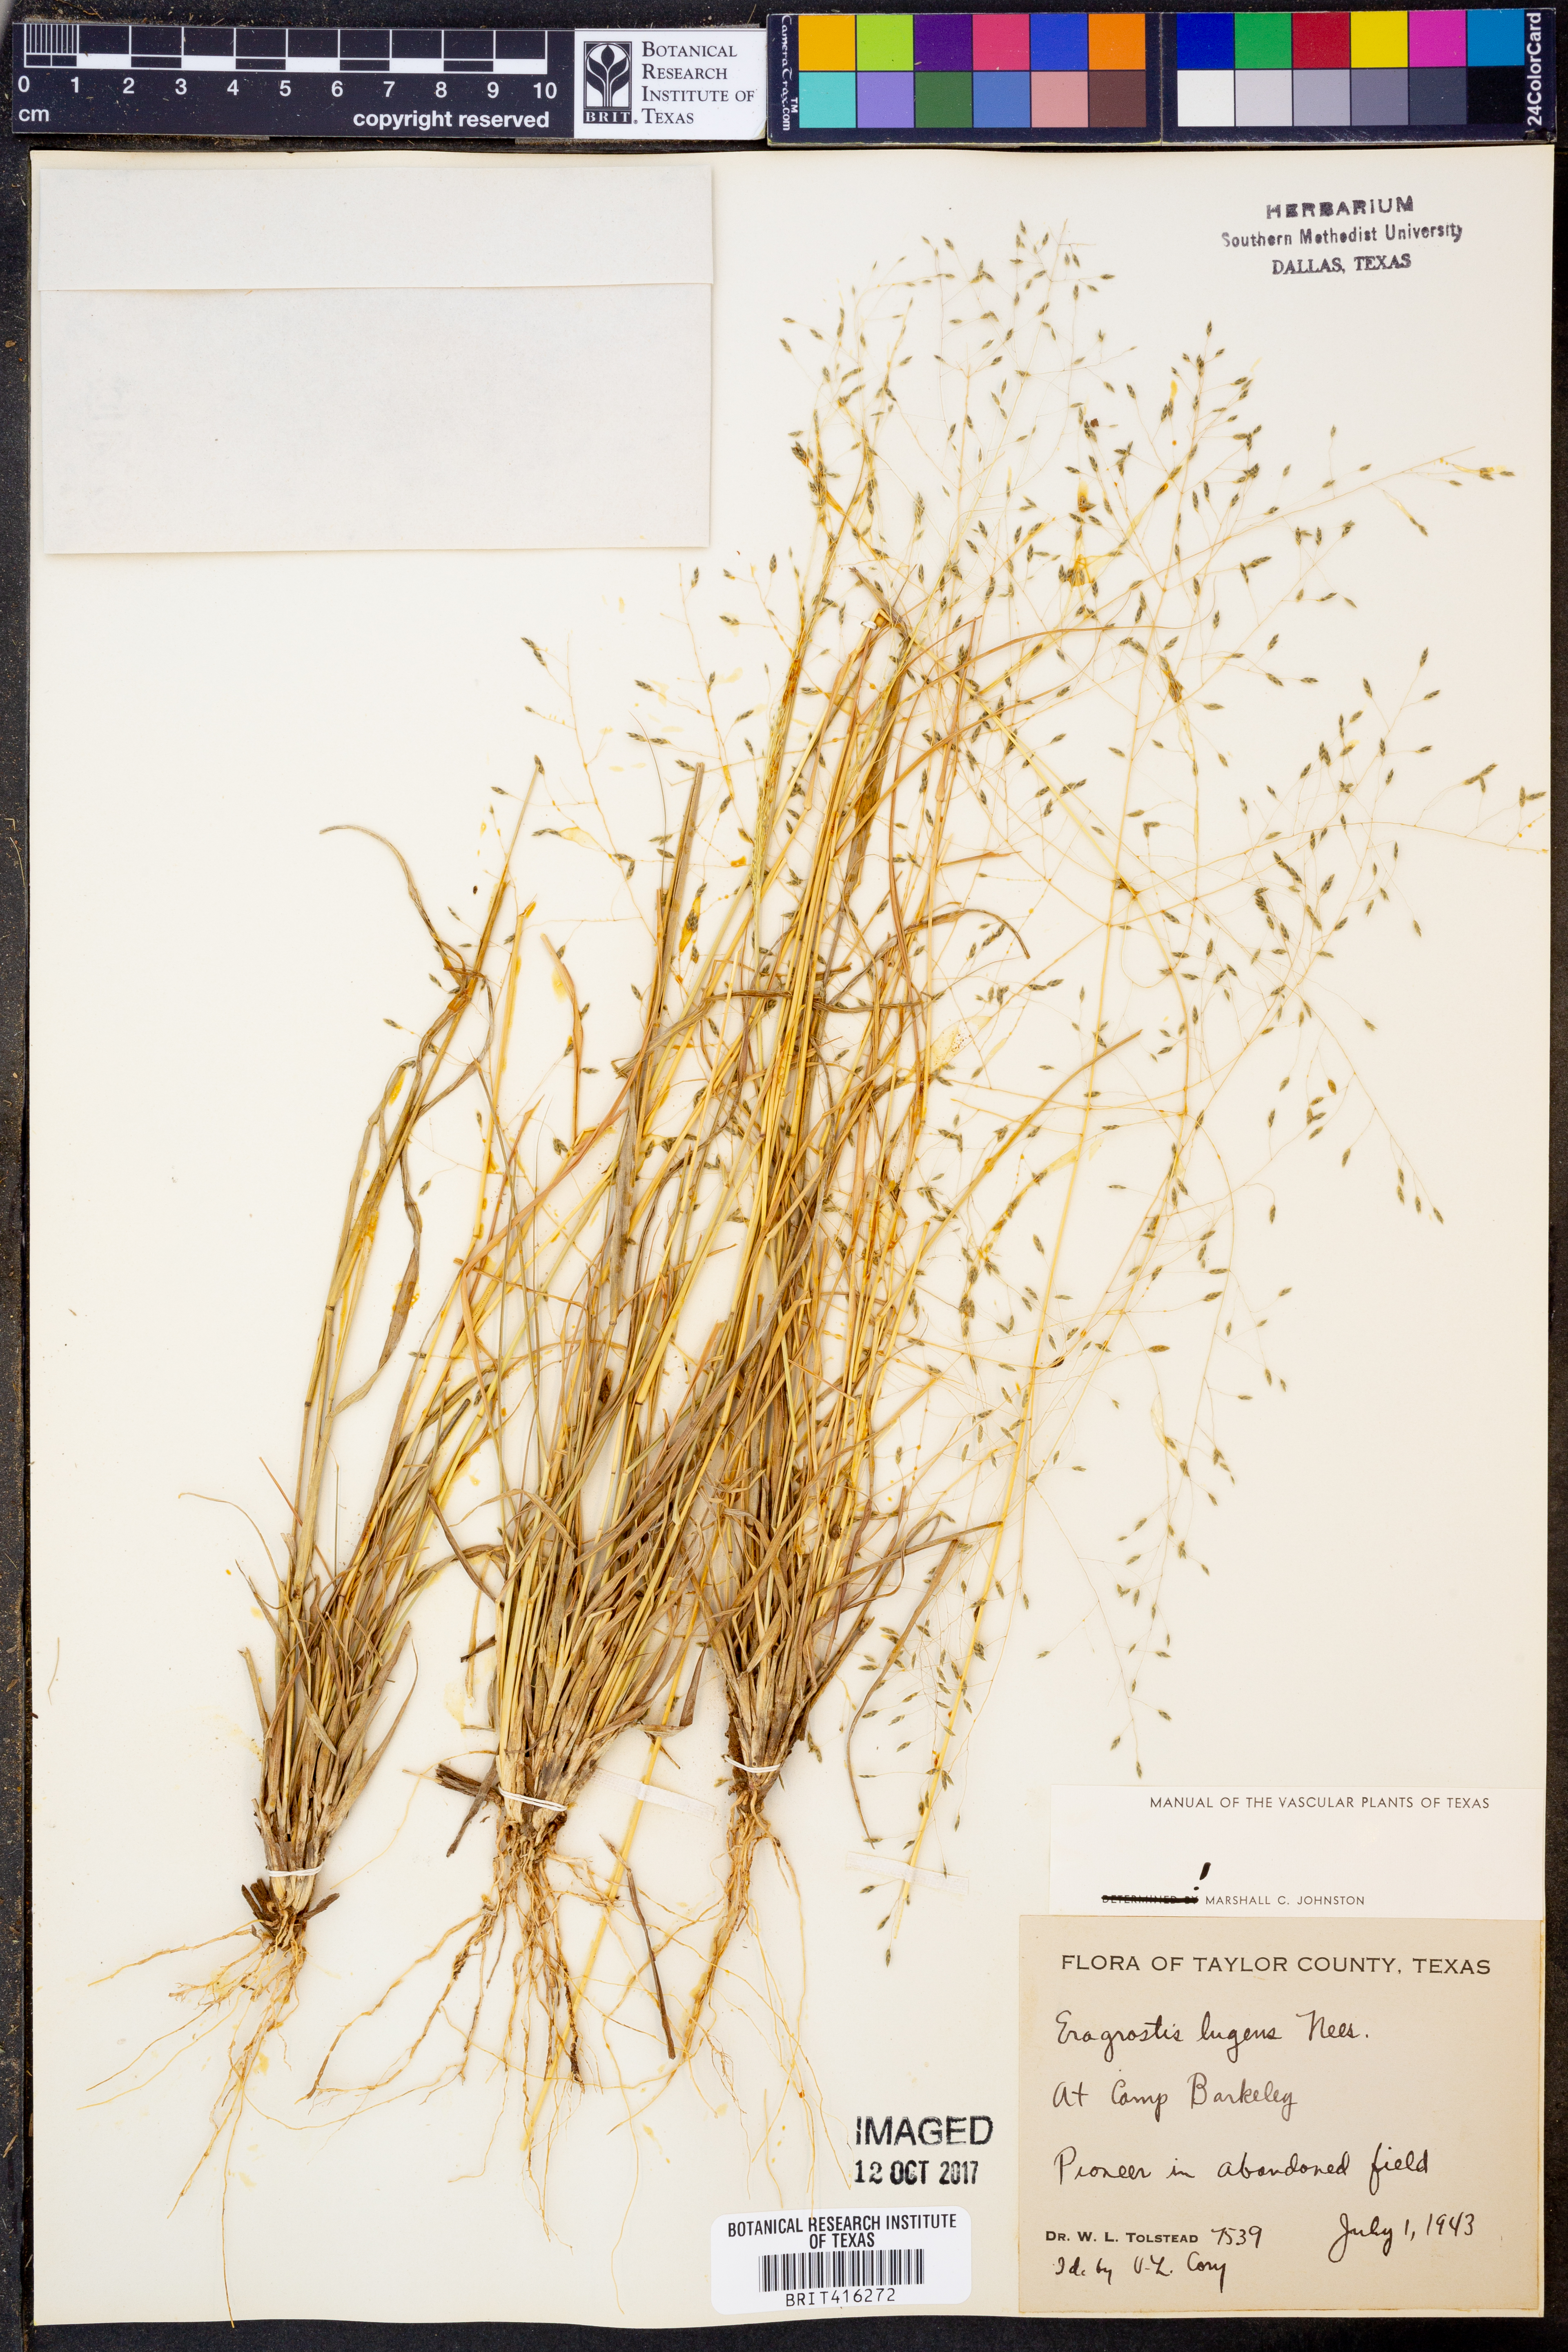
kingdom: Plantae
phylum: Tracheophyta
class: Liliopsida
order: Poales
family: Poaceae
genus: Eragrostis
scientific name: Eragrostis capillaris
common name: Hair-like lovegrass
